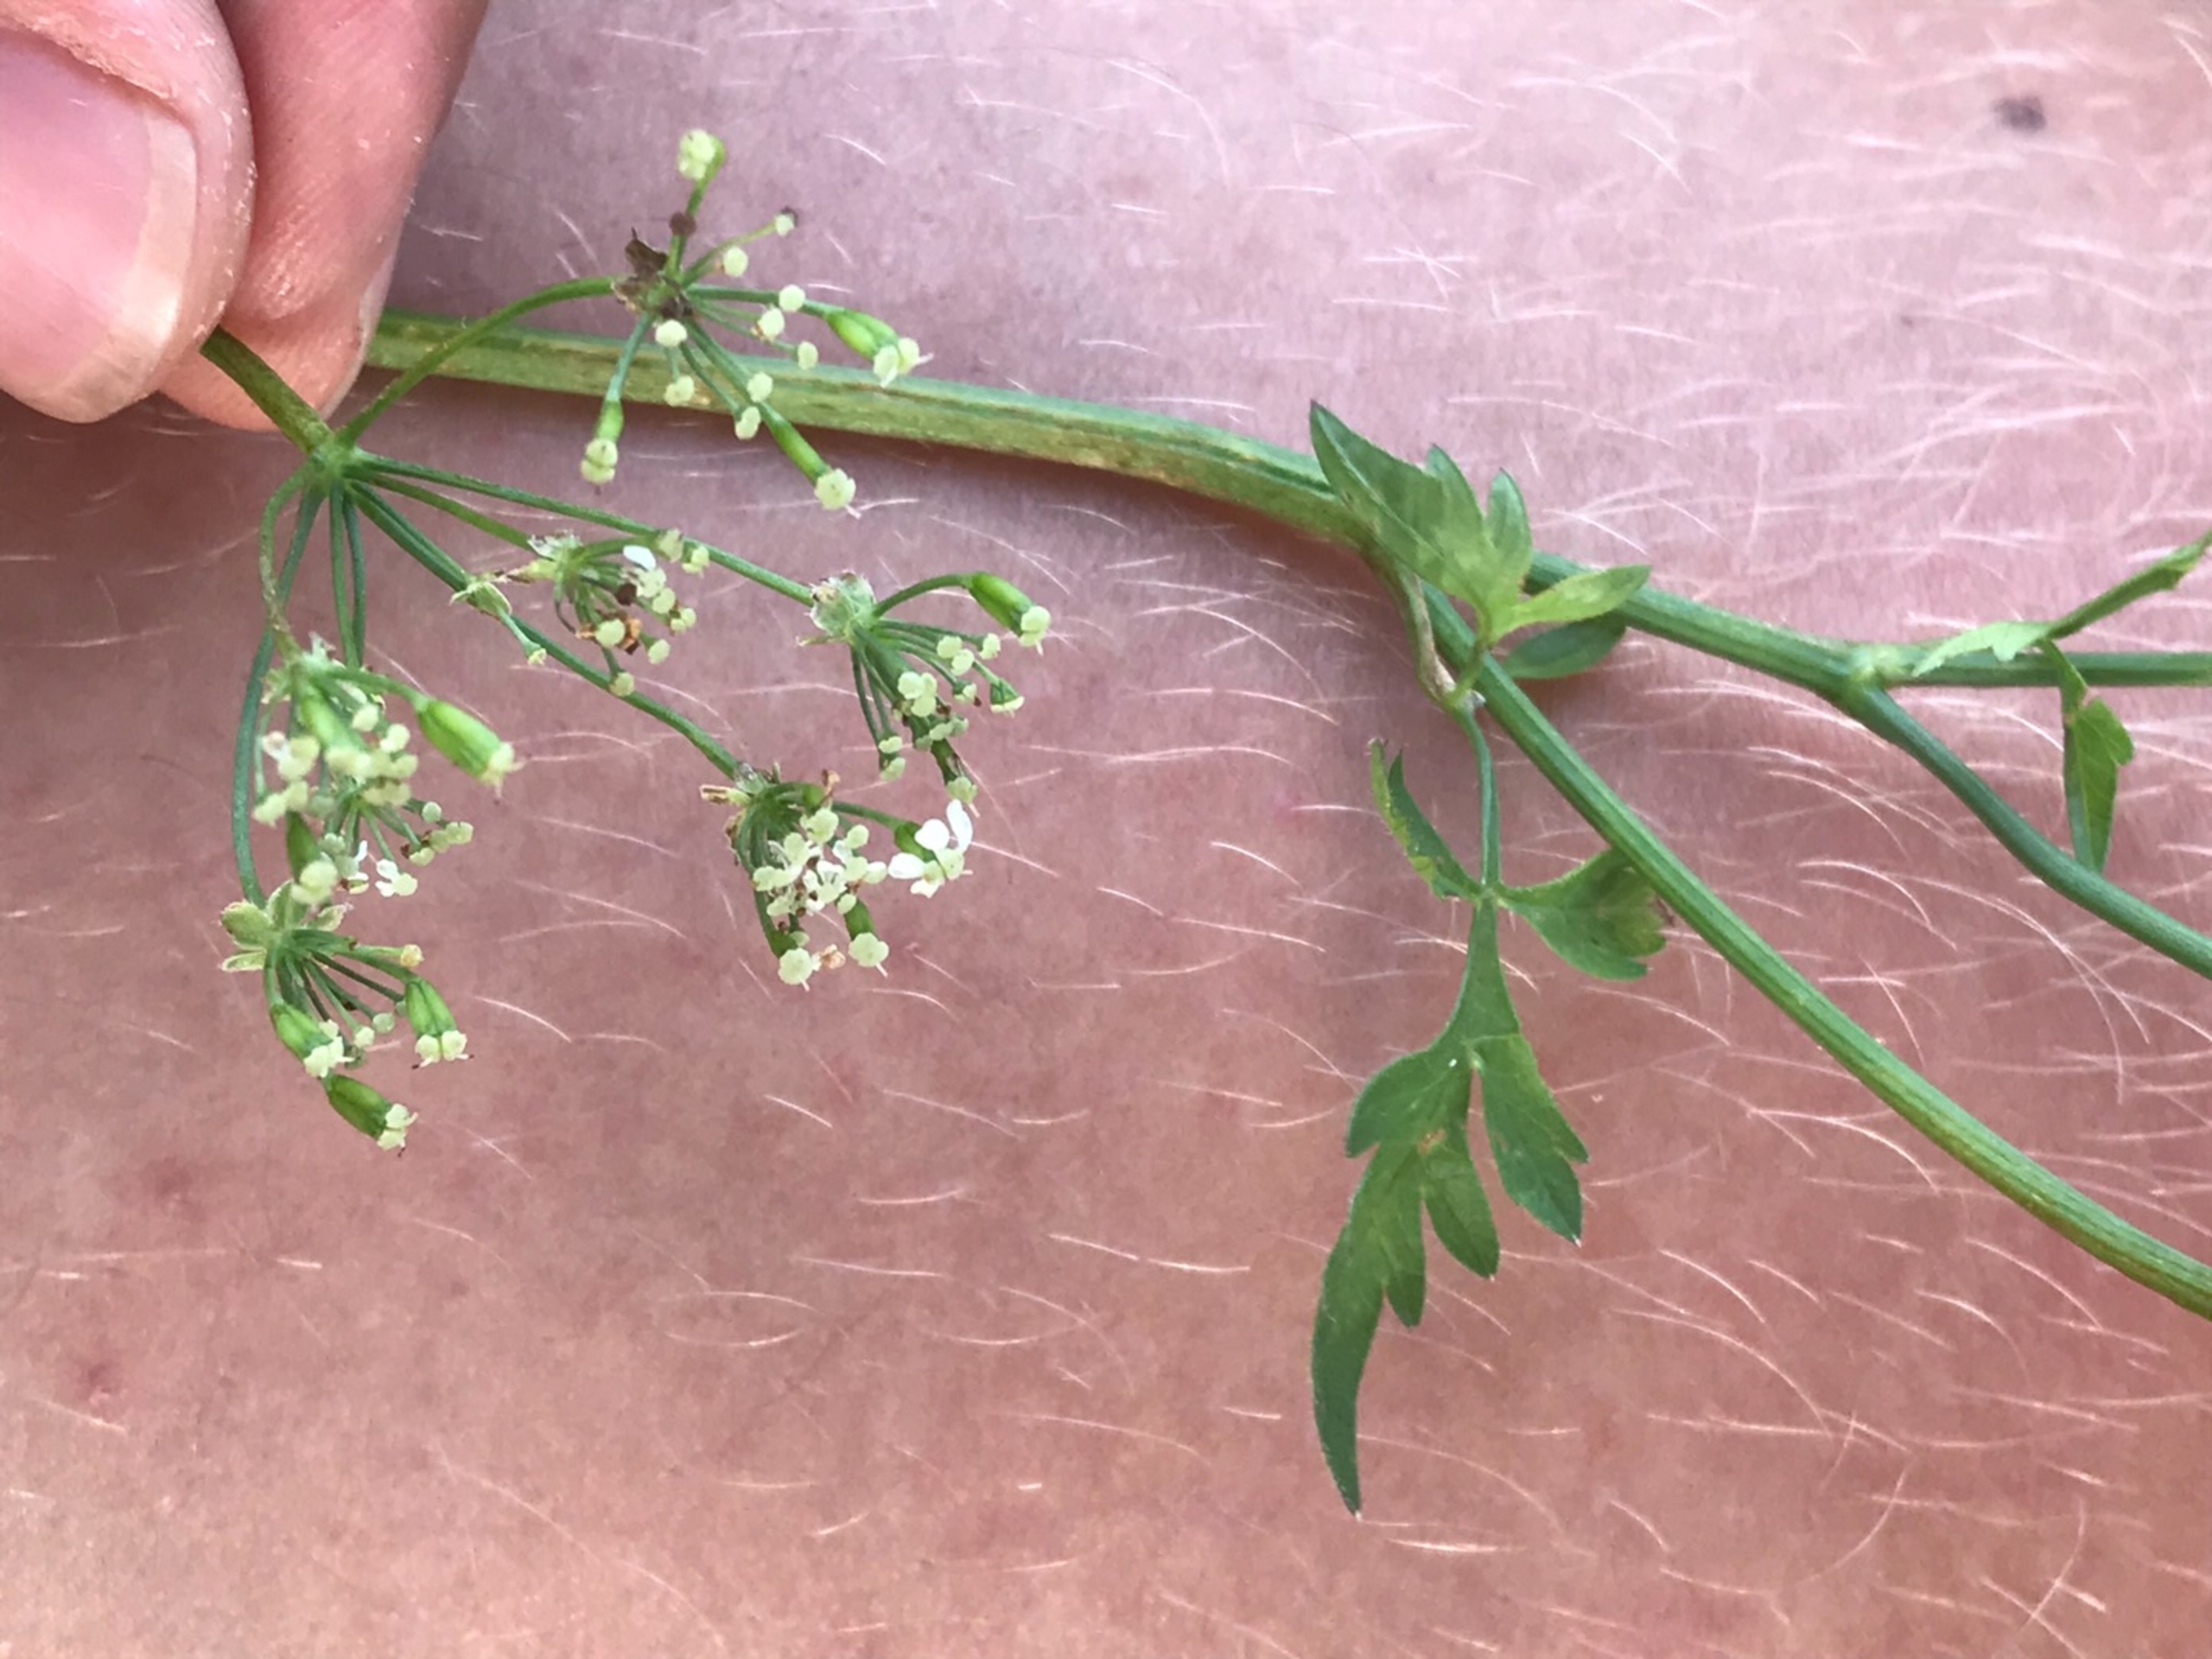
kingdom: Plantae
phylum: Tracheophyta
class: Magnoliopsida
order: Apiales
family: Apiaceae
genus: Anthriscus
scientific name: Anthriscus sylvestris
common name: Vild kørvel
